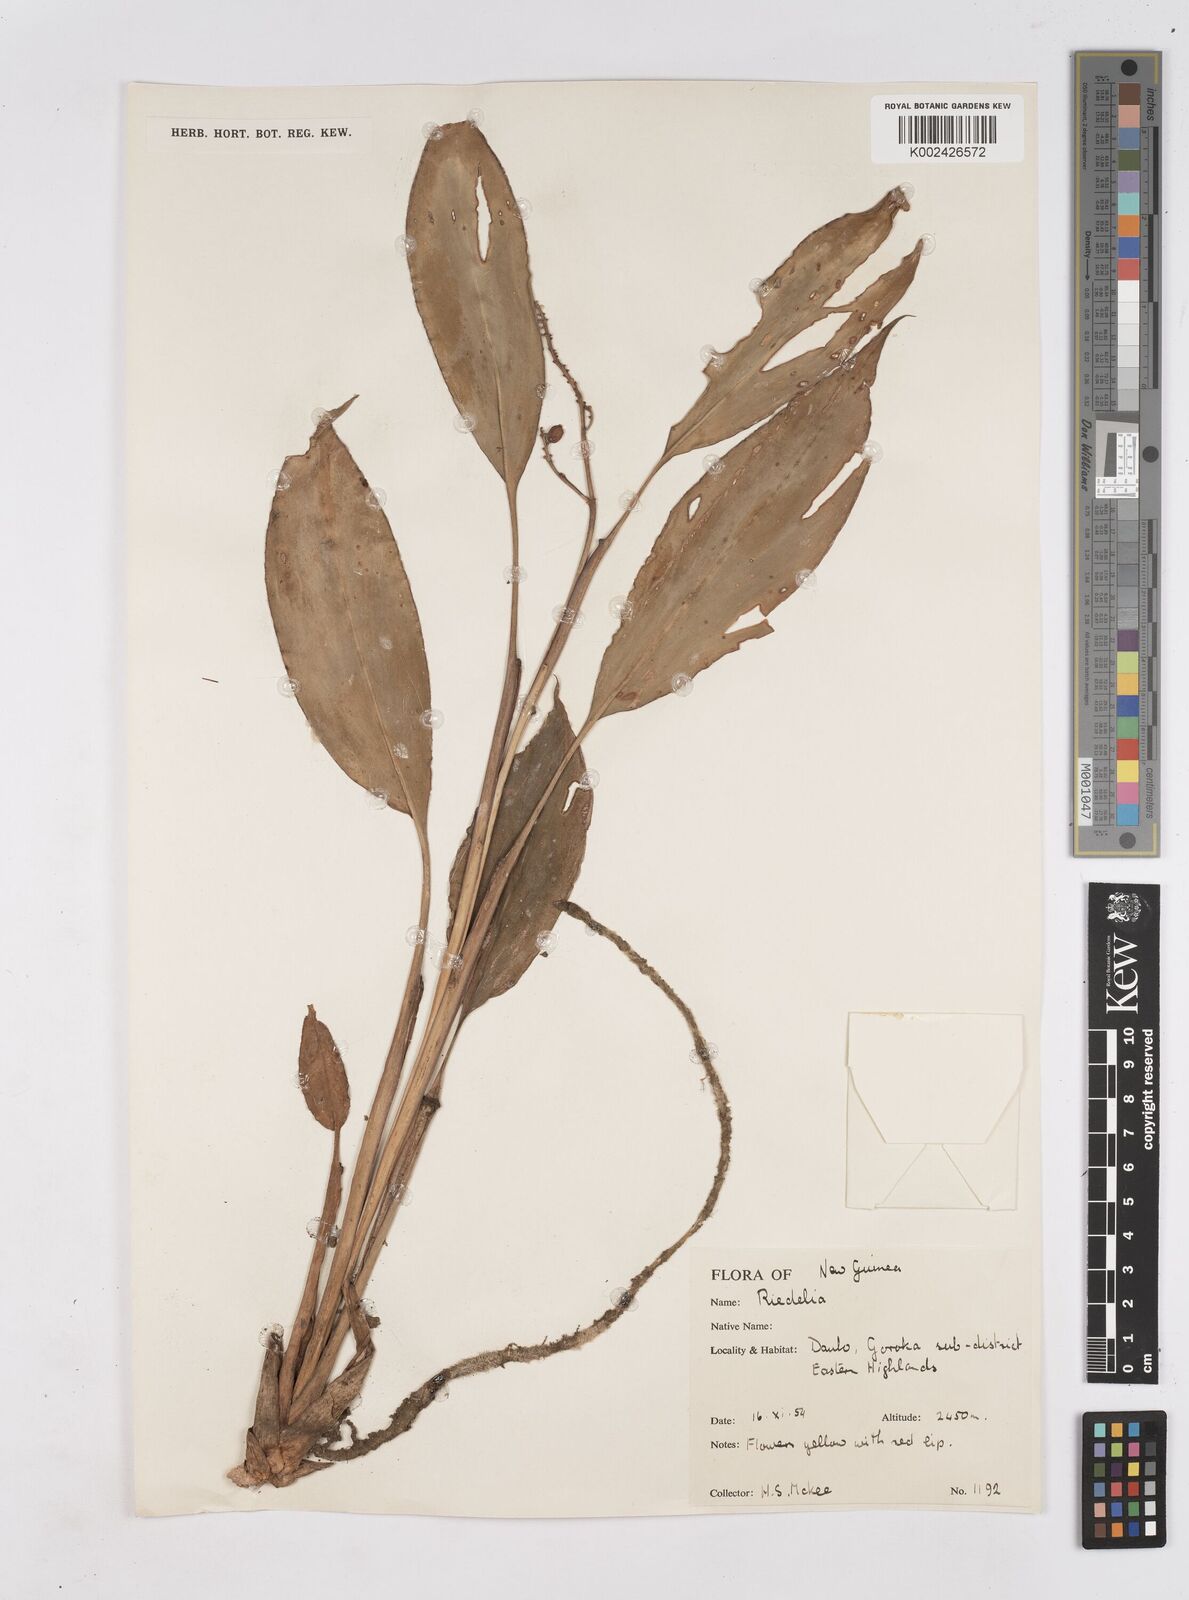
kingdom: Plantae
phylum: Tracheophyta
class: Liliopsida
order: Zingiberales
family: Zingiberaceae
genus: Riedelia
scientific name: Riedelia
